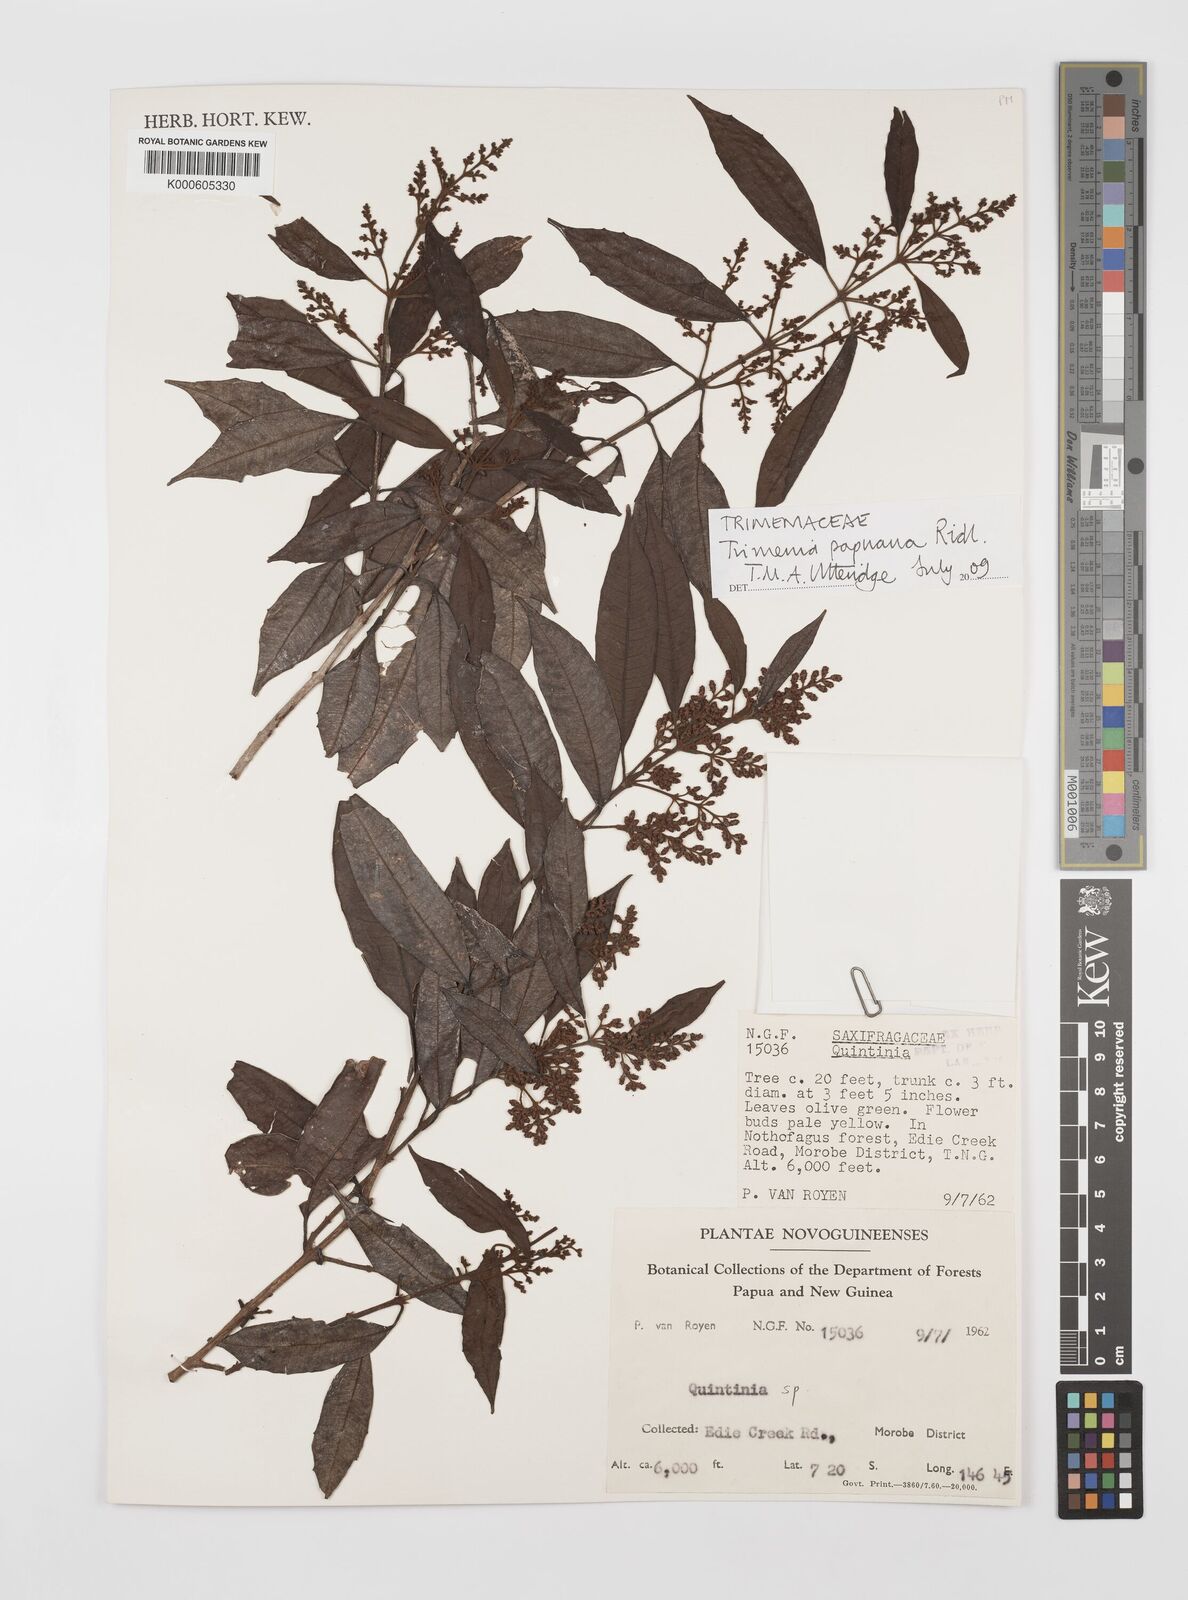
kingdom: Plantae
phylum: Tracheophyta
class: Magnoliopsida
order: Austrobaileyales
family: Trimeniaceae
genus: Trimenia
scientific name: Trimenia papuana
